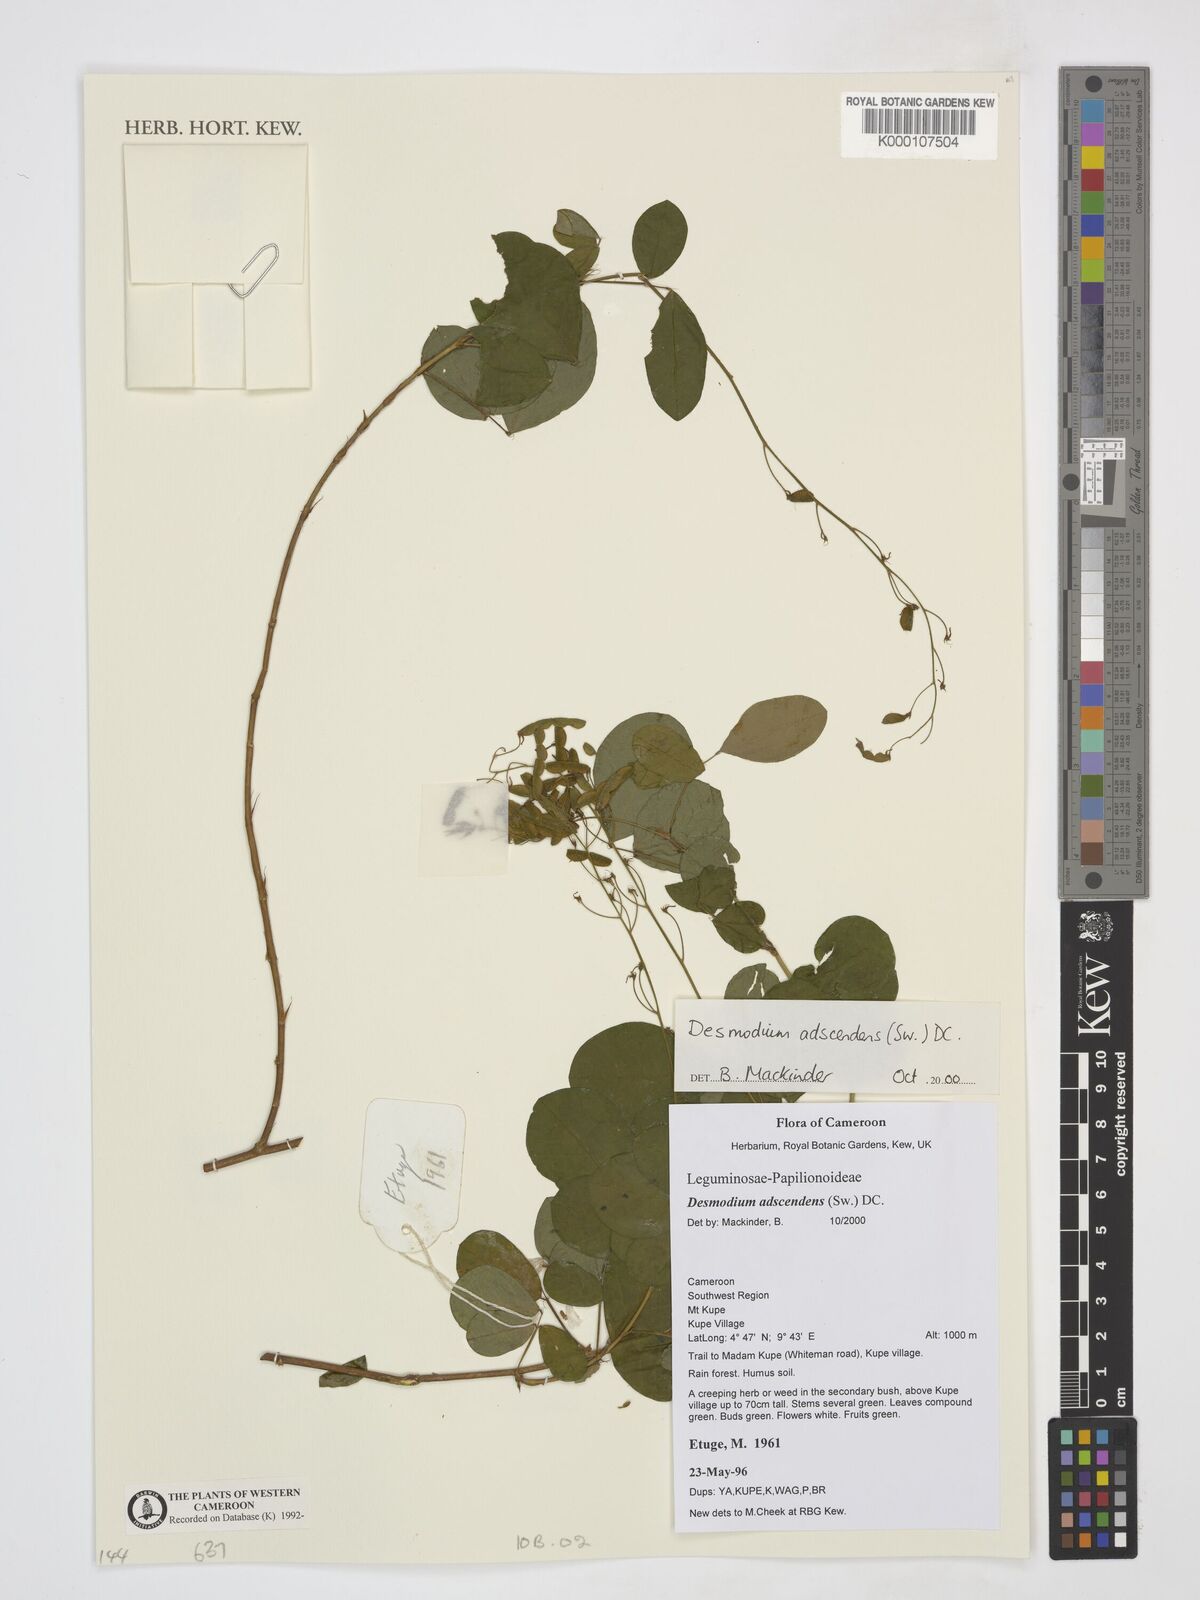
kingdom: Plantae
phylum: Tracheophyta
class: Magnoliopsida
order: Fabales
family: Fabaceae
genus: Grona
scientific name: Grona adscendens
